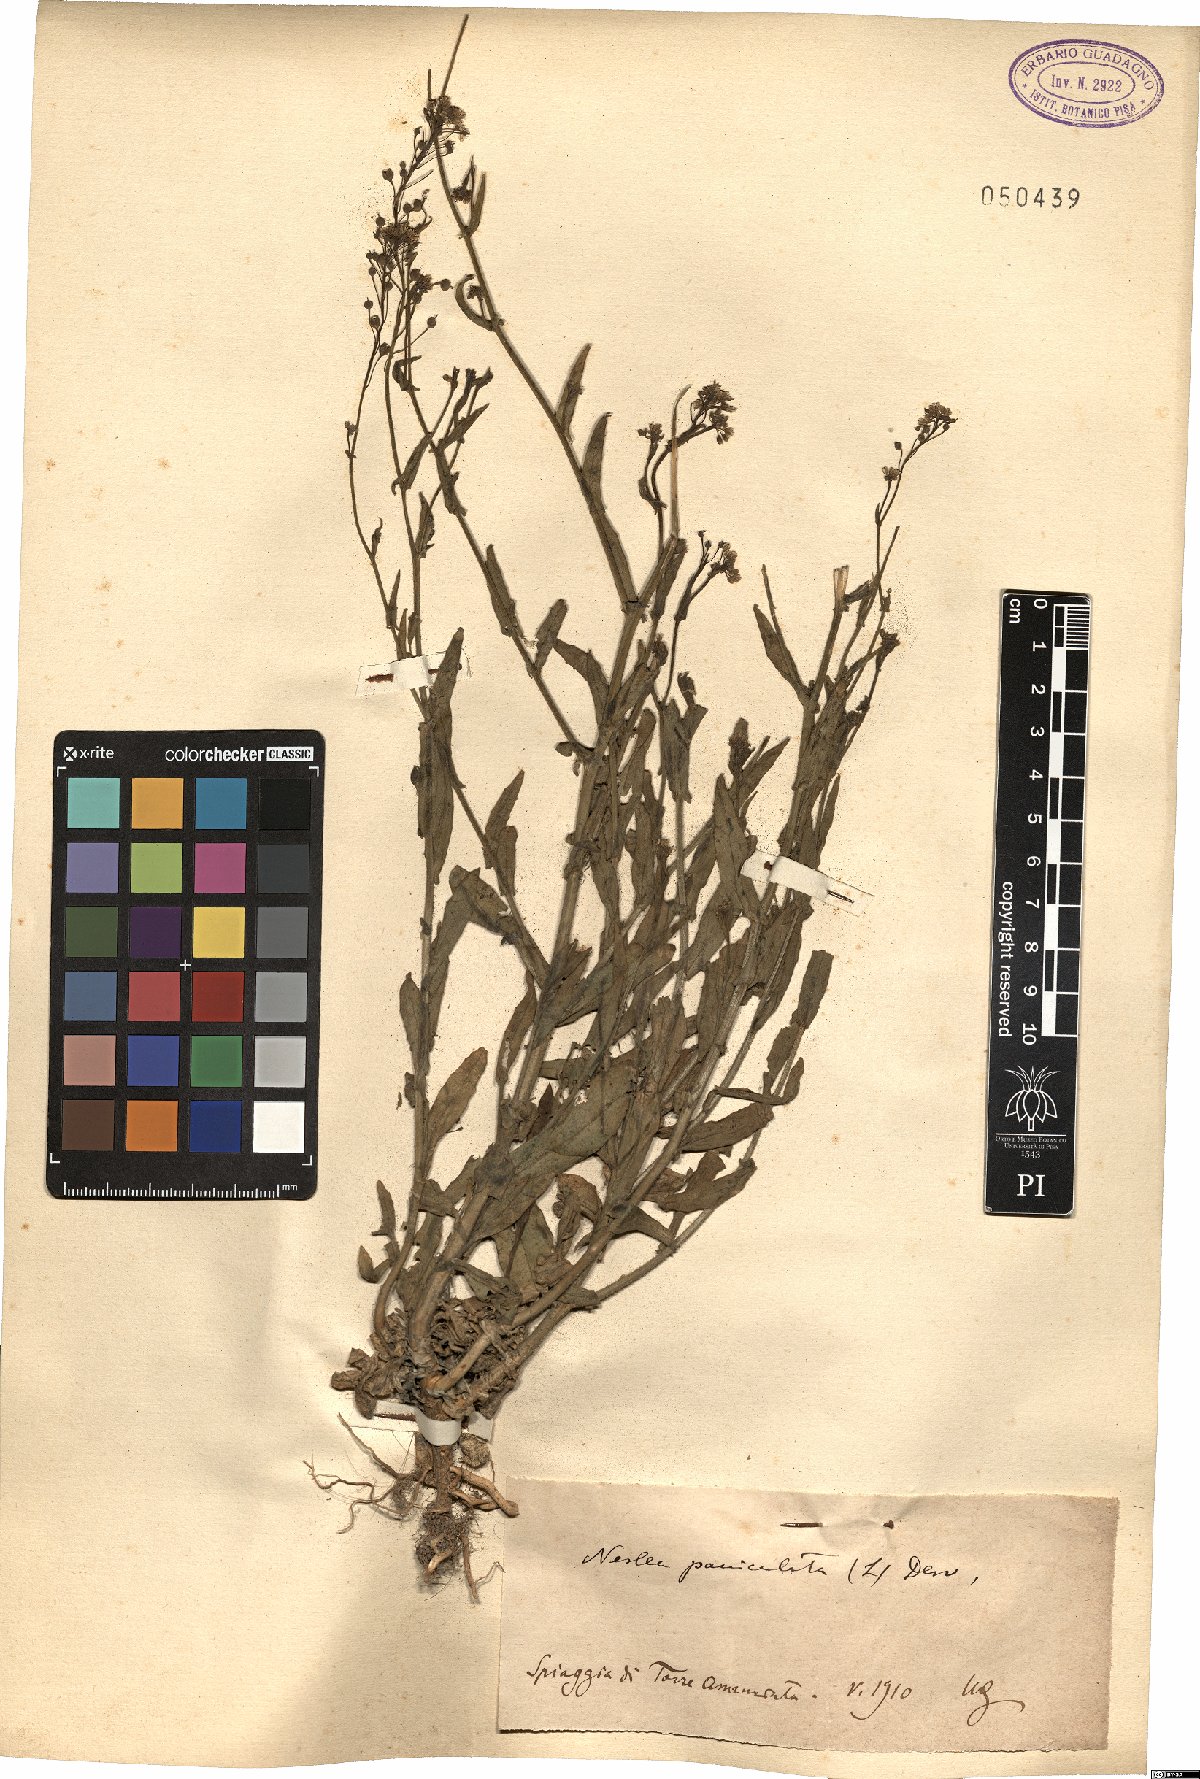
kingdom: Plantae
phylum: Tracheophyta
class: Magnoliopsida
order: Brassicales
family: Brassicaceae
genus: Neslia
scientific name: Neslia paniculata
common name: Ball mustard
